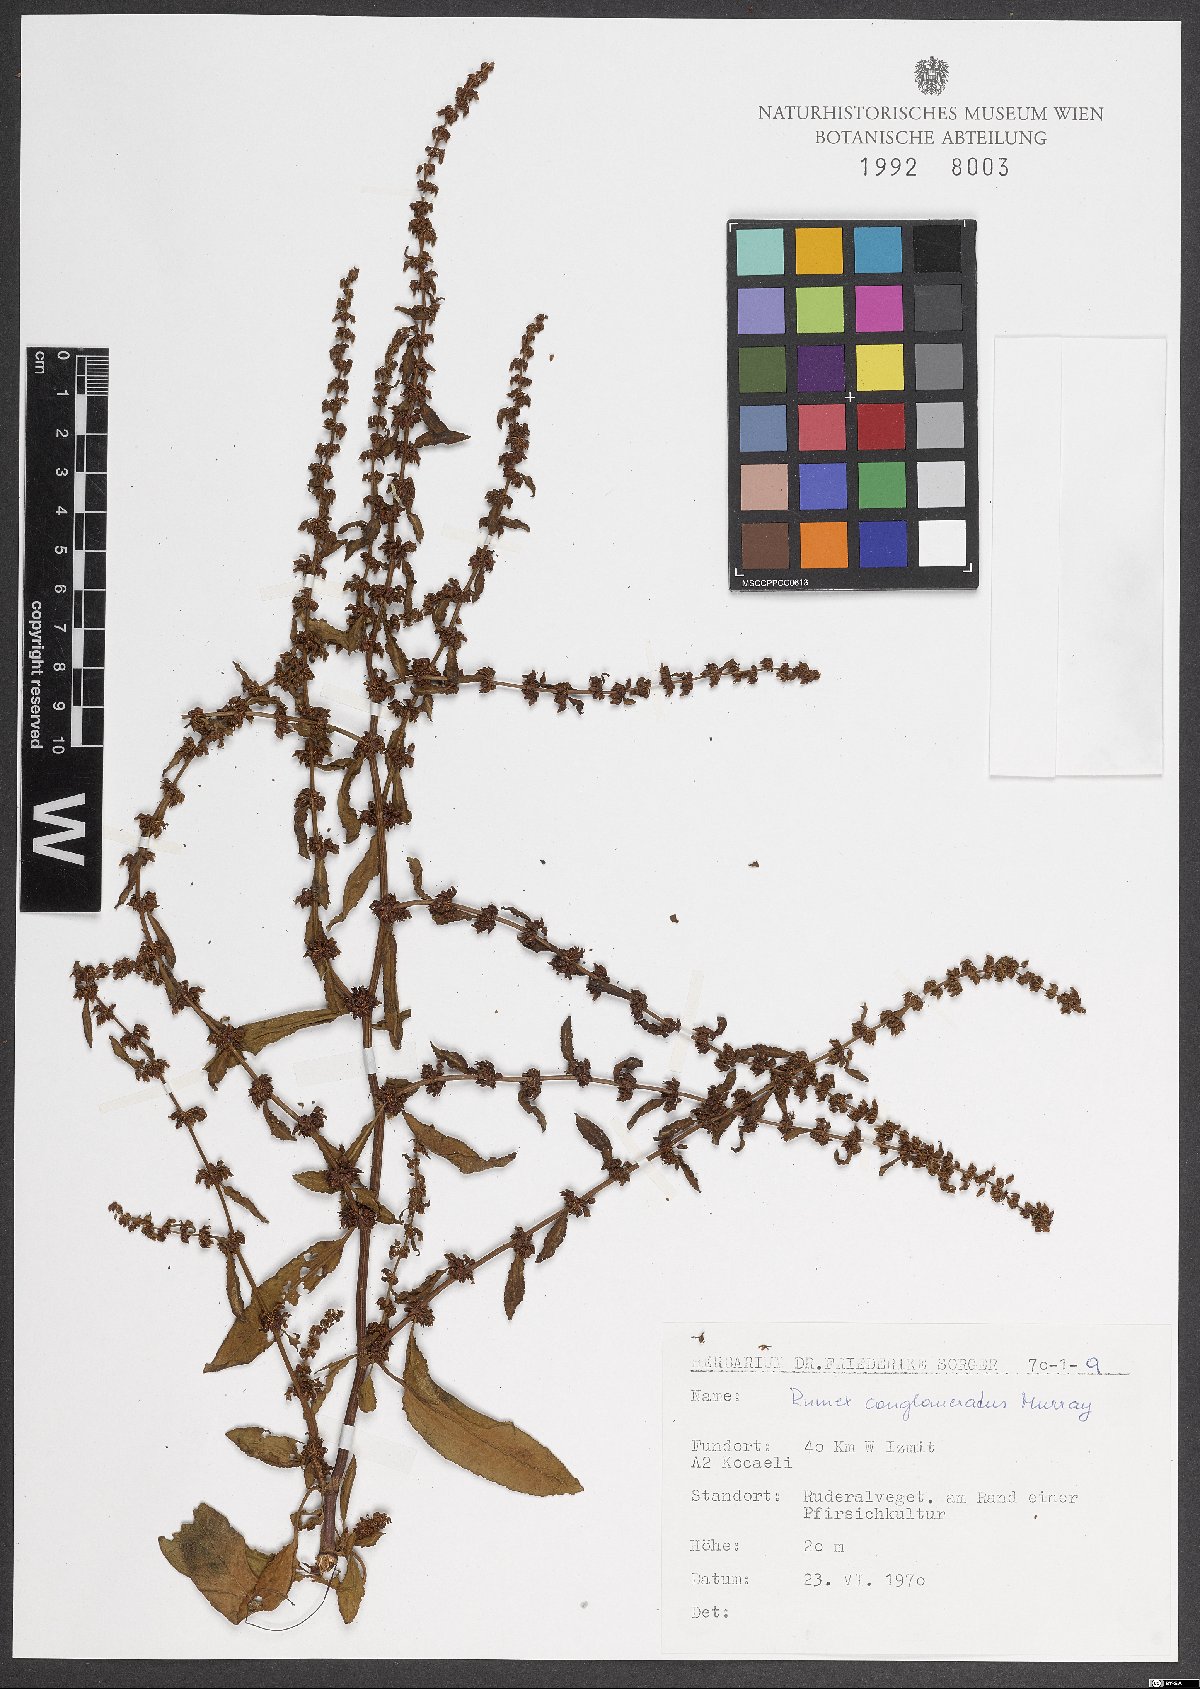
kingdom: Plantae
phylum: Tracheophyta
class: Magnoliopsida
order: Caryophyllales
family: Polygonaceae
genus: Rumex
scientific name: Rumex conglomeratus
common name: Clustered dock
